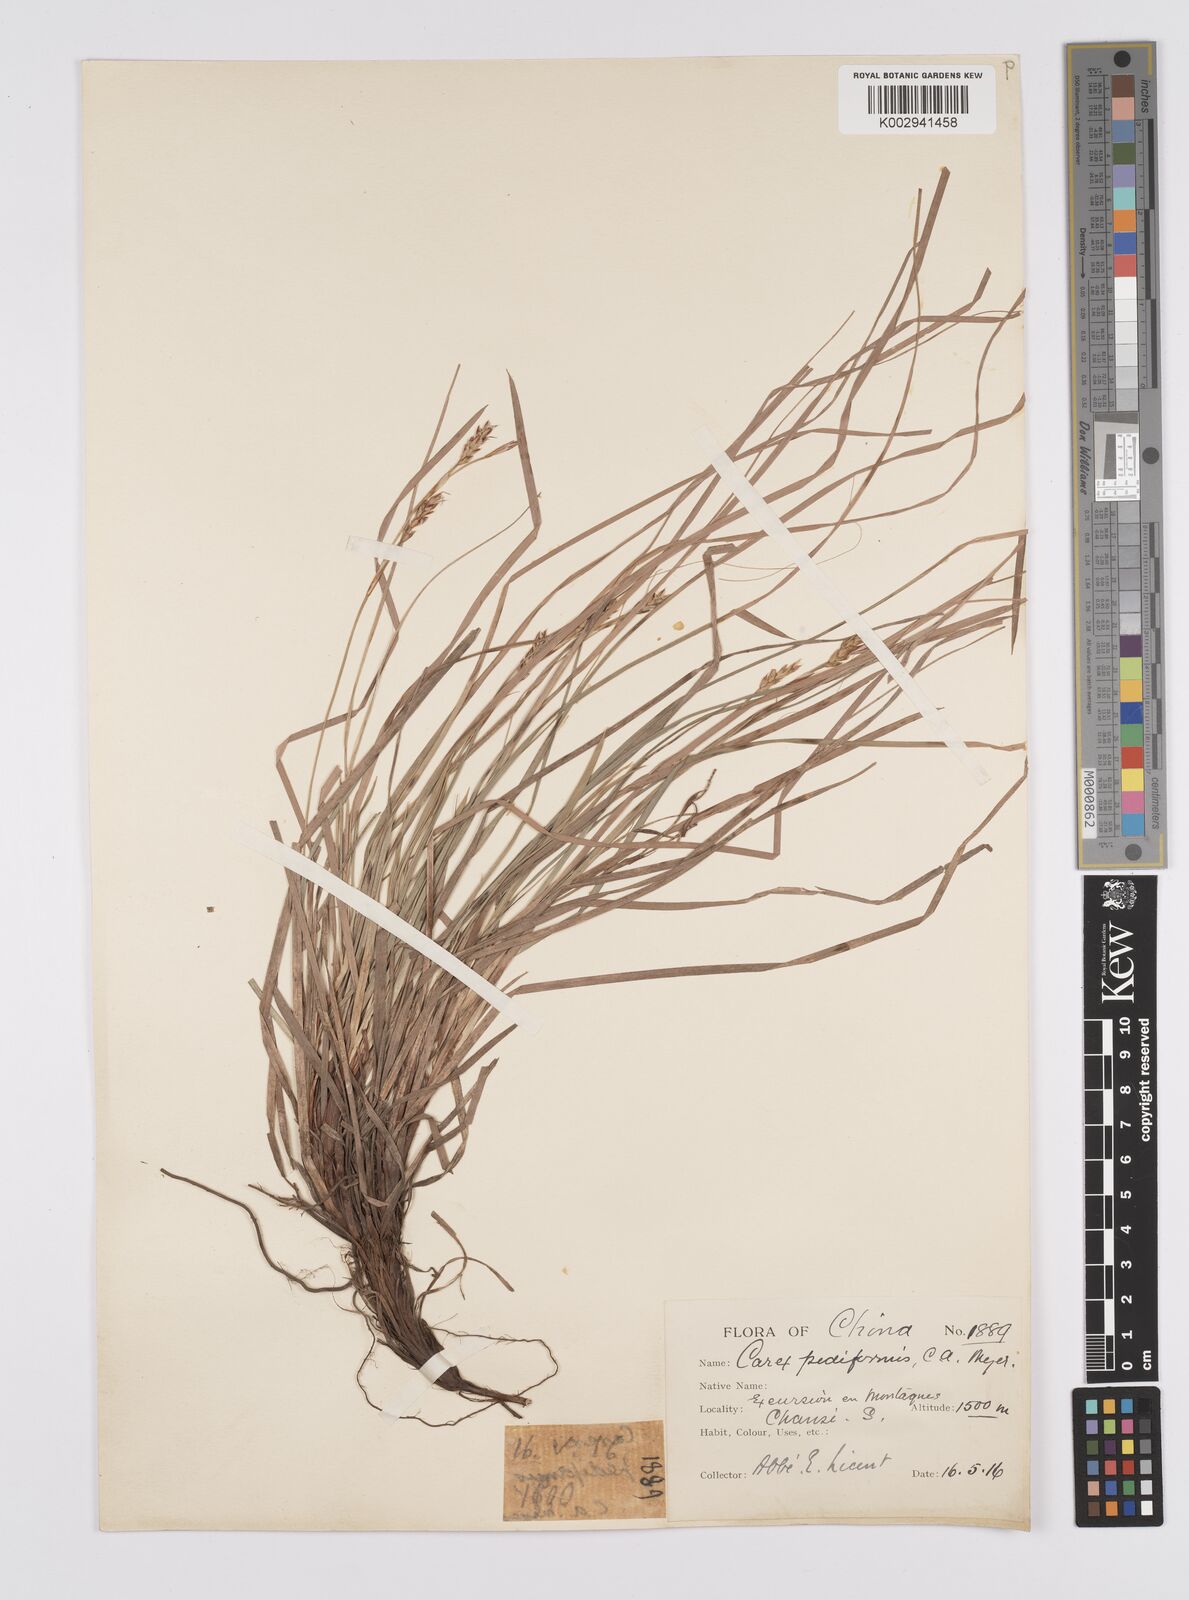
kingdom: Plantae
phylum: Tracheophyta
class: Liliopsida
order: Poales
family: Cyperaceae
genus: Carex
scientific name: Carex lanceolata
